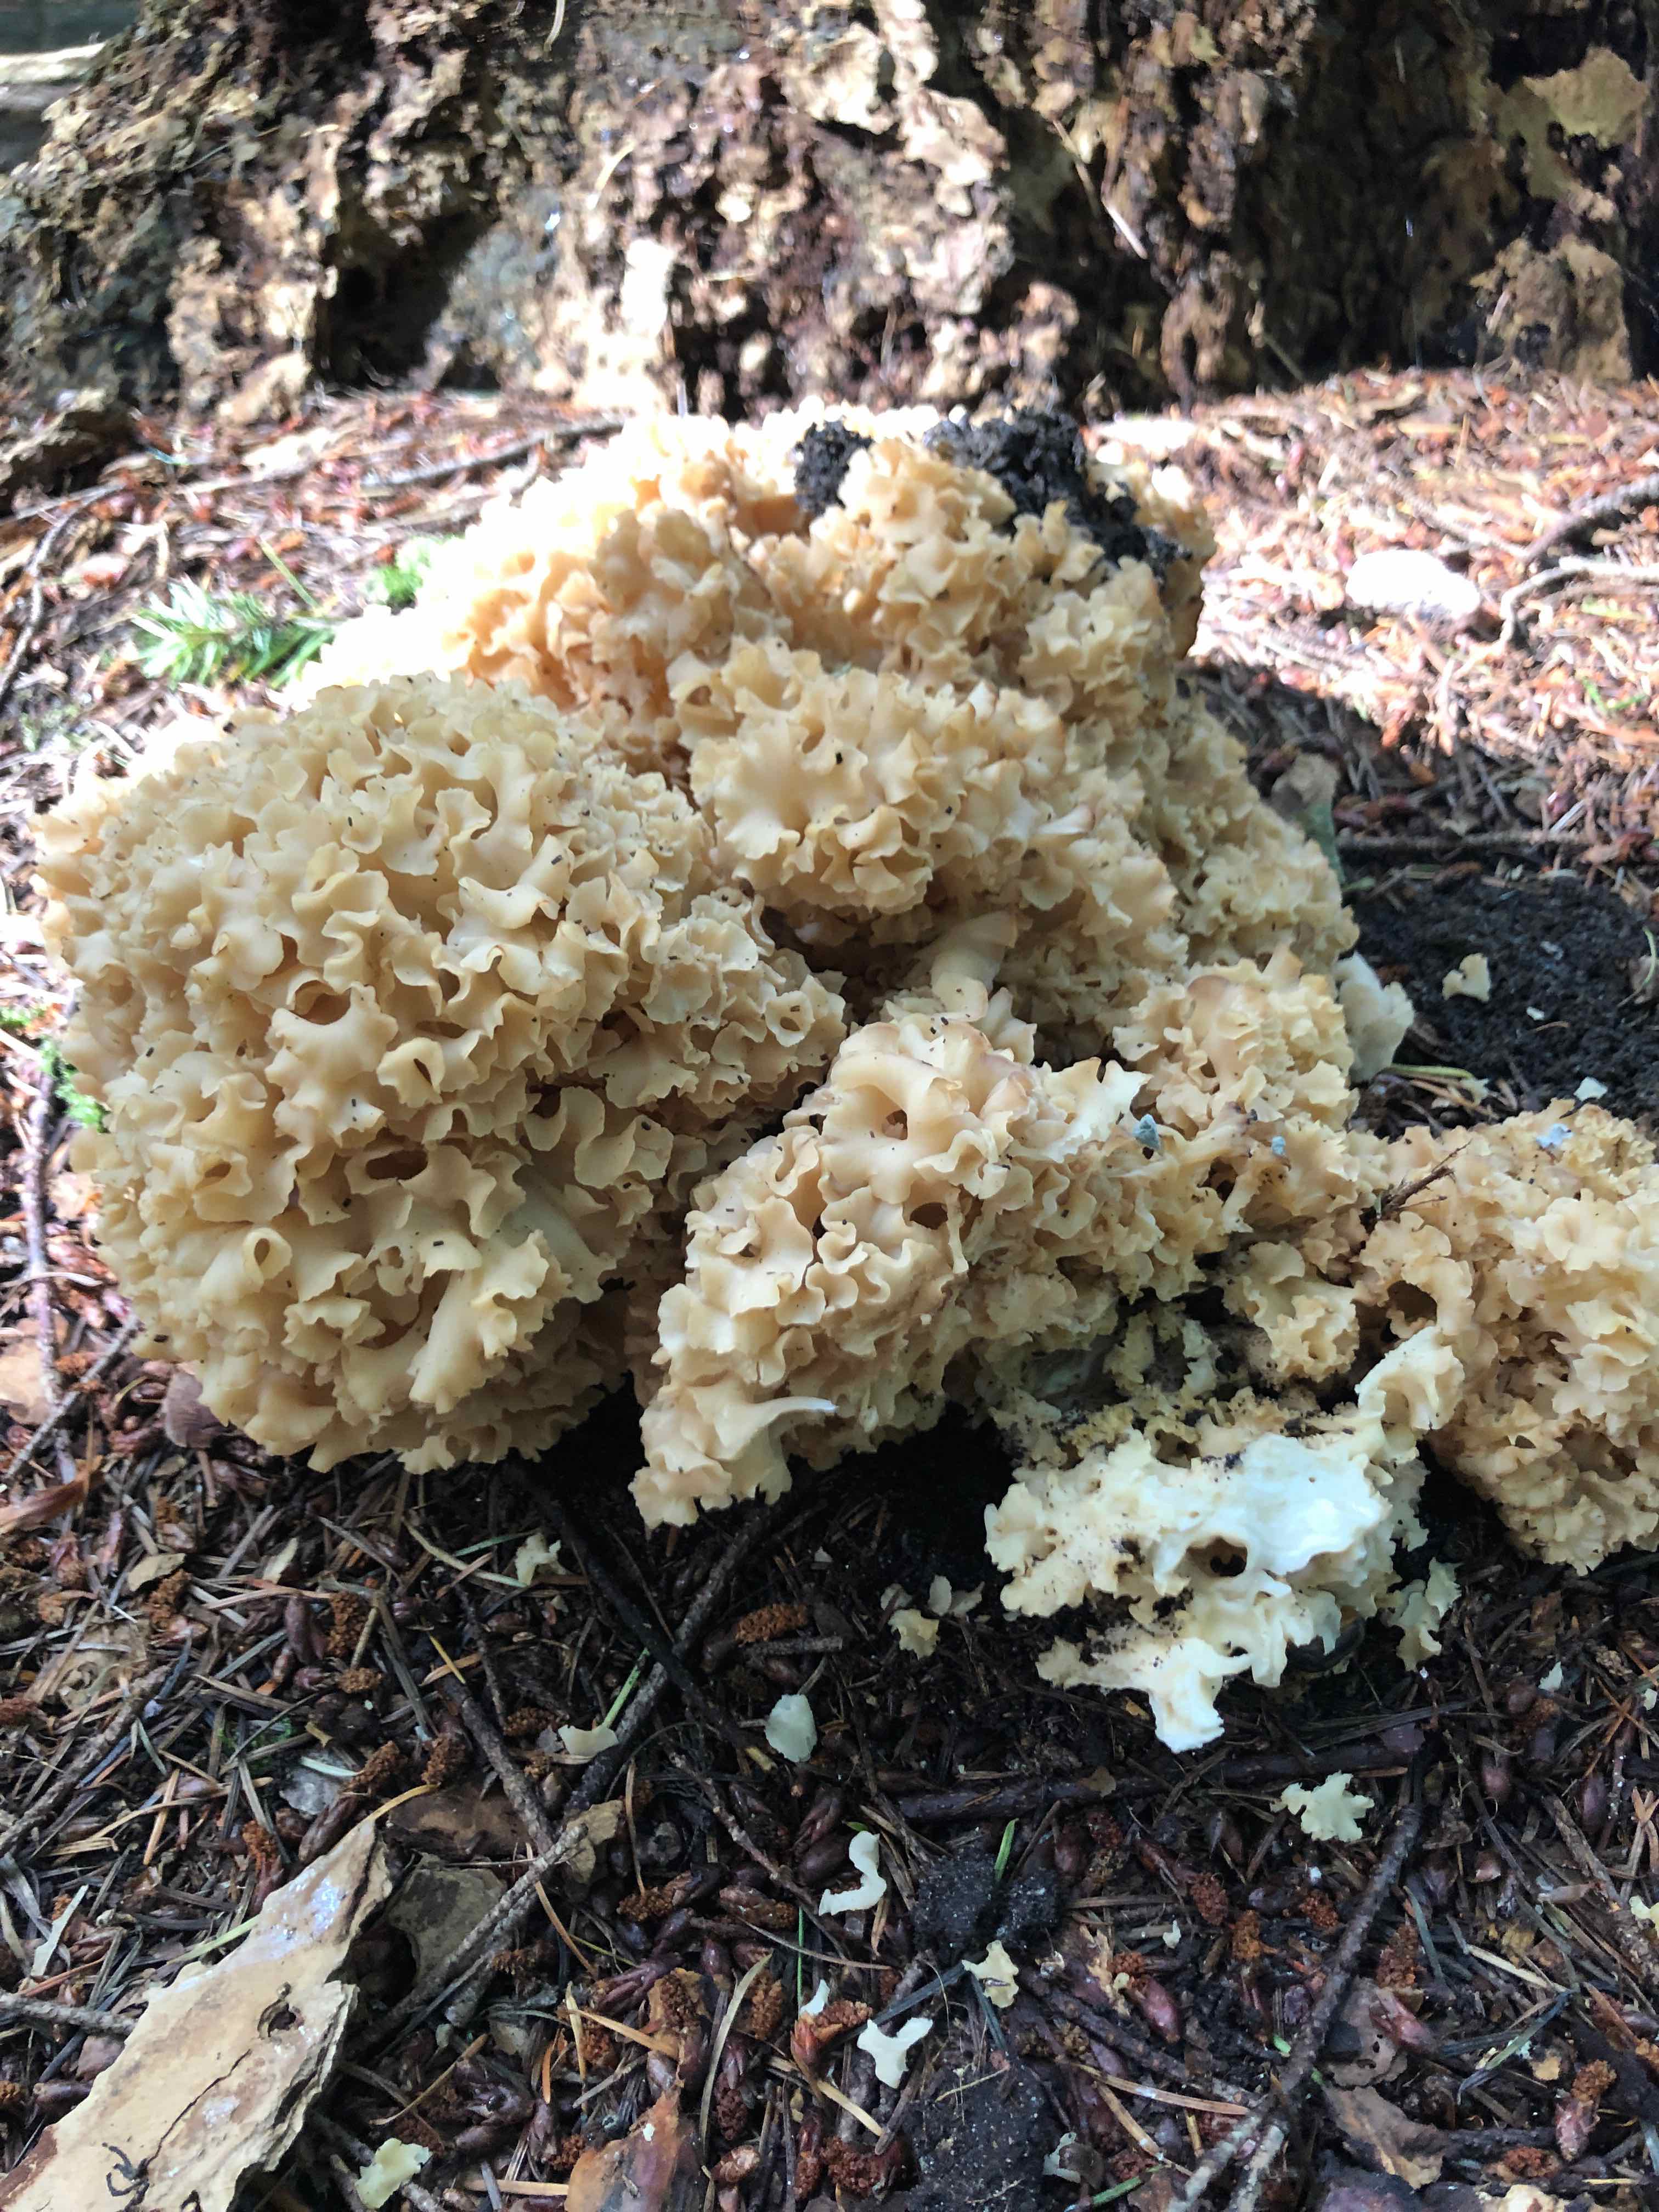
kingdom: Fungi
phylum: Basidiomycota
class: Agaricomycetes
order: Polyporales
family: Sparassidaceae
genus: Sparassis
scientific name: Sparassis crispa
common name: kruset blomkålssvamp
